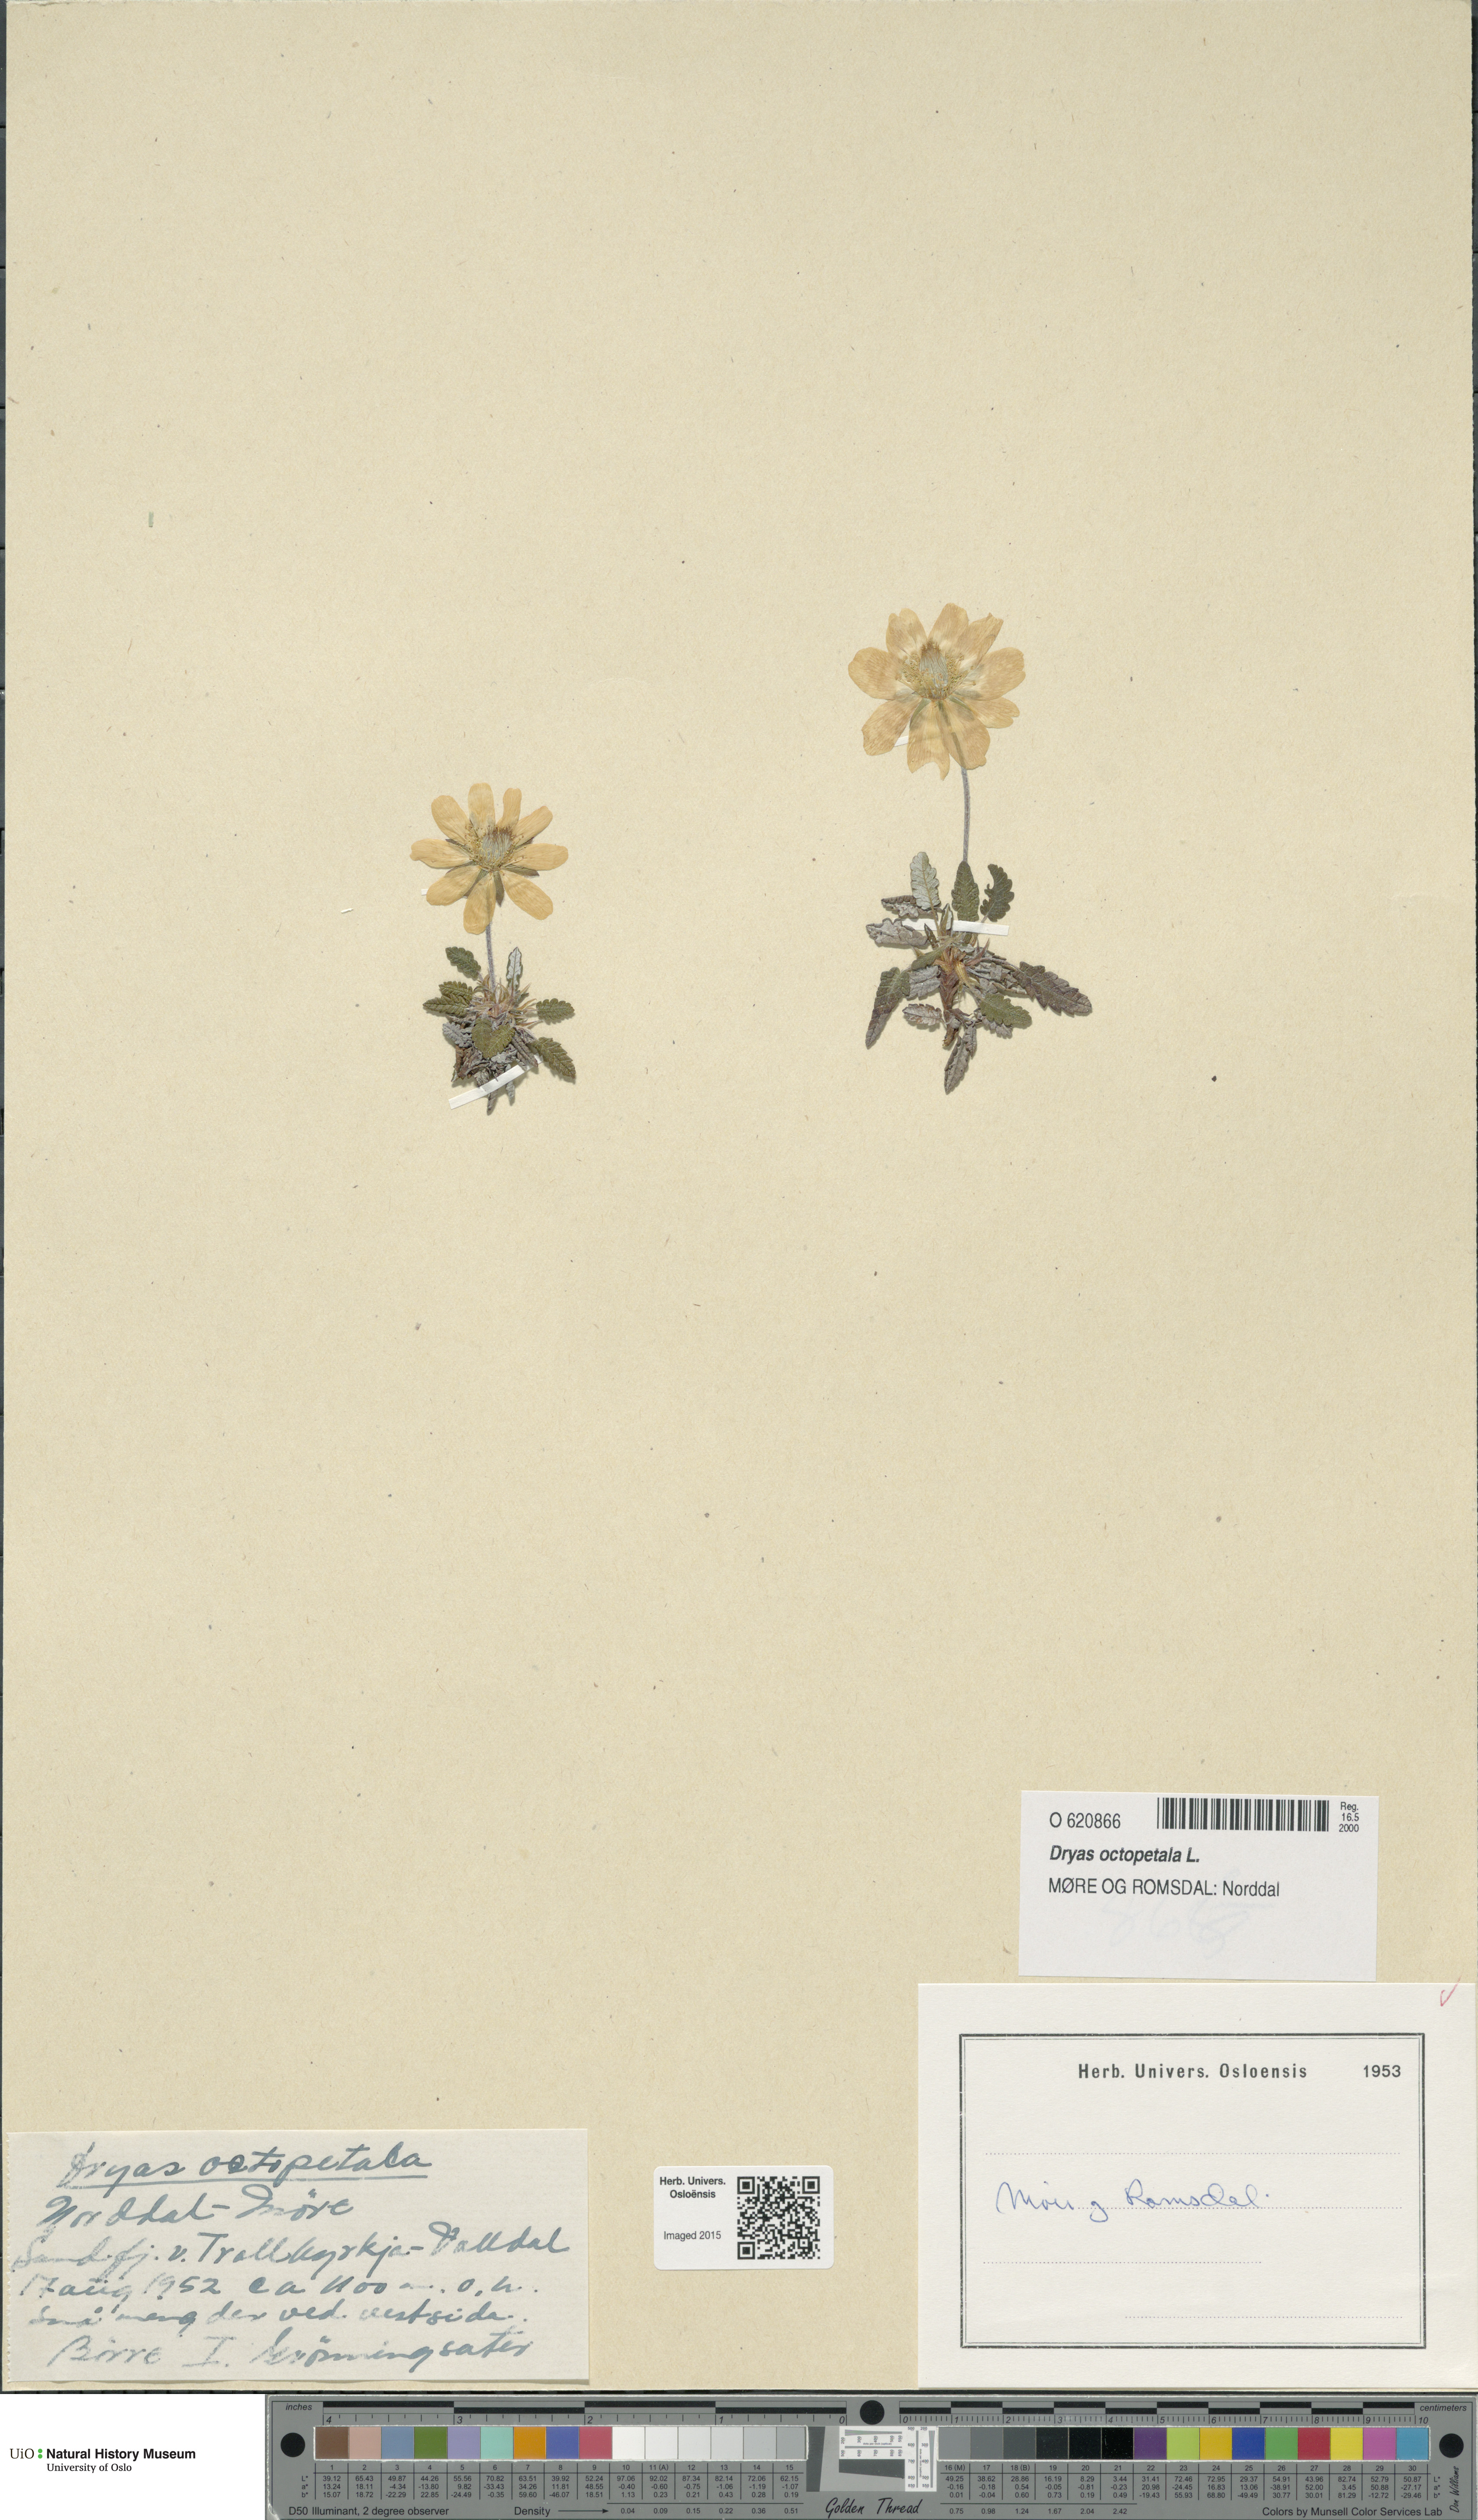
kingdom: Plantae
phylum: Tracheophyta
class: Magnoliopsida
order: Rosales
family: Rosaceae
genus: Dryas
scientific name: Dryas octopetala
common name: Eight-petal mountain-avens
